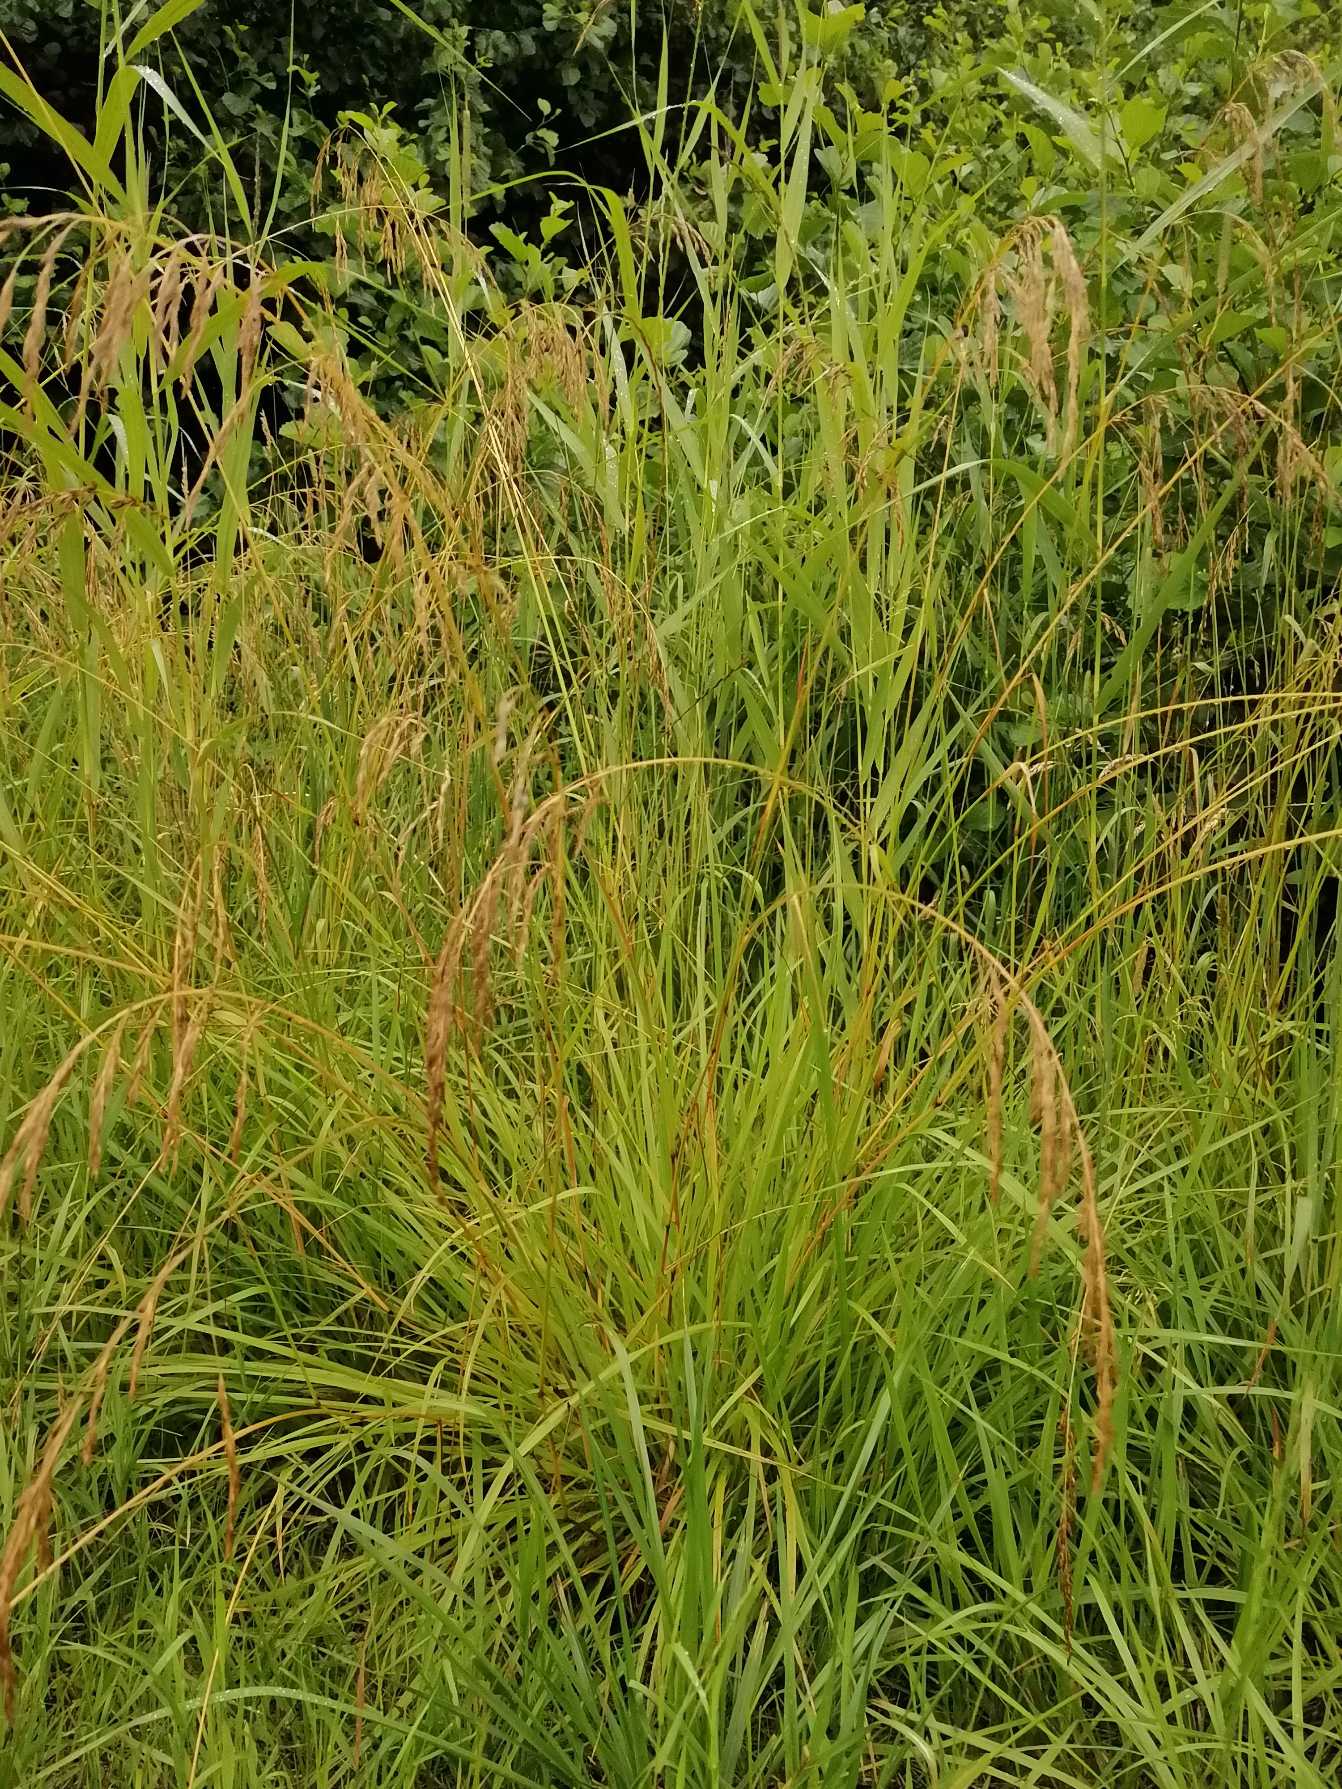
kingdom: Plantae
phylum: Tracheophyta
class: Liliopsida
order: Poales
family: Poaceae
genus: Molinia
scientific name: Molinia caerulea
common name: Blåtop
